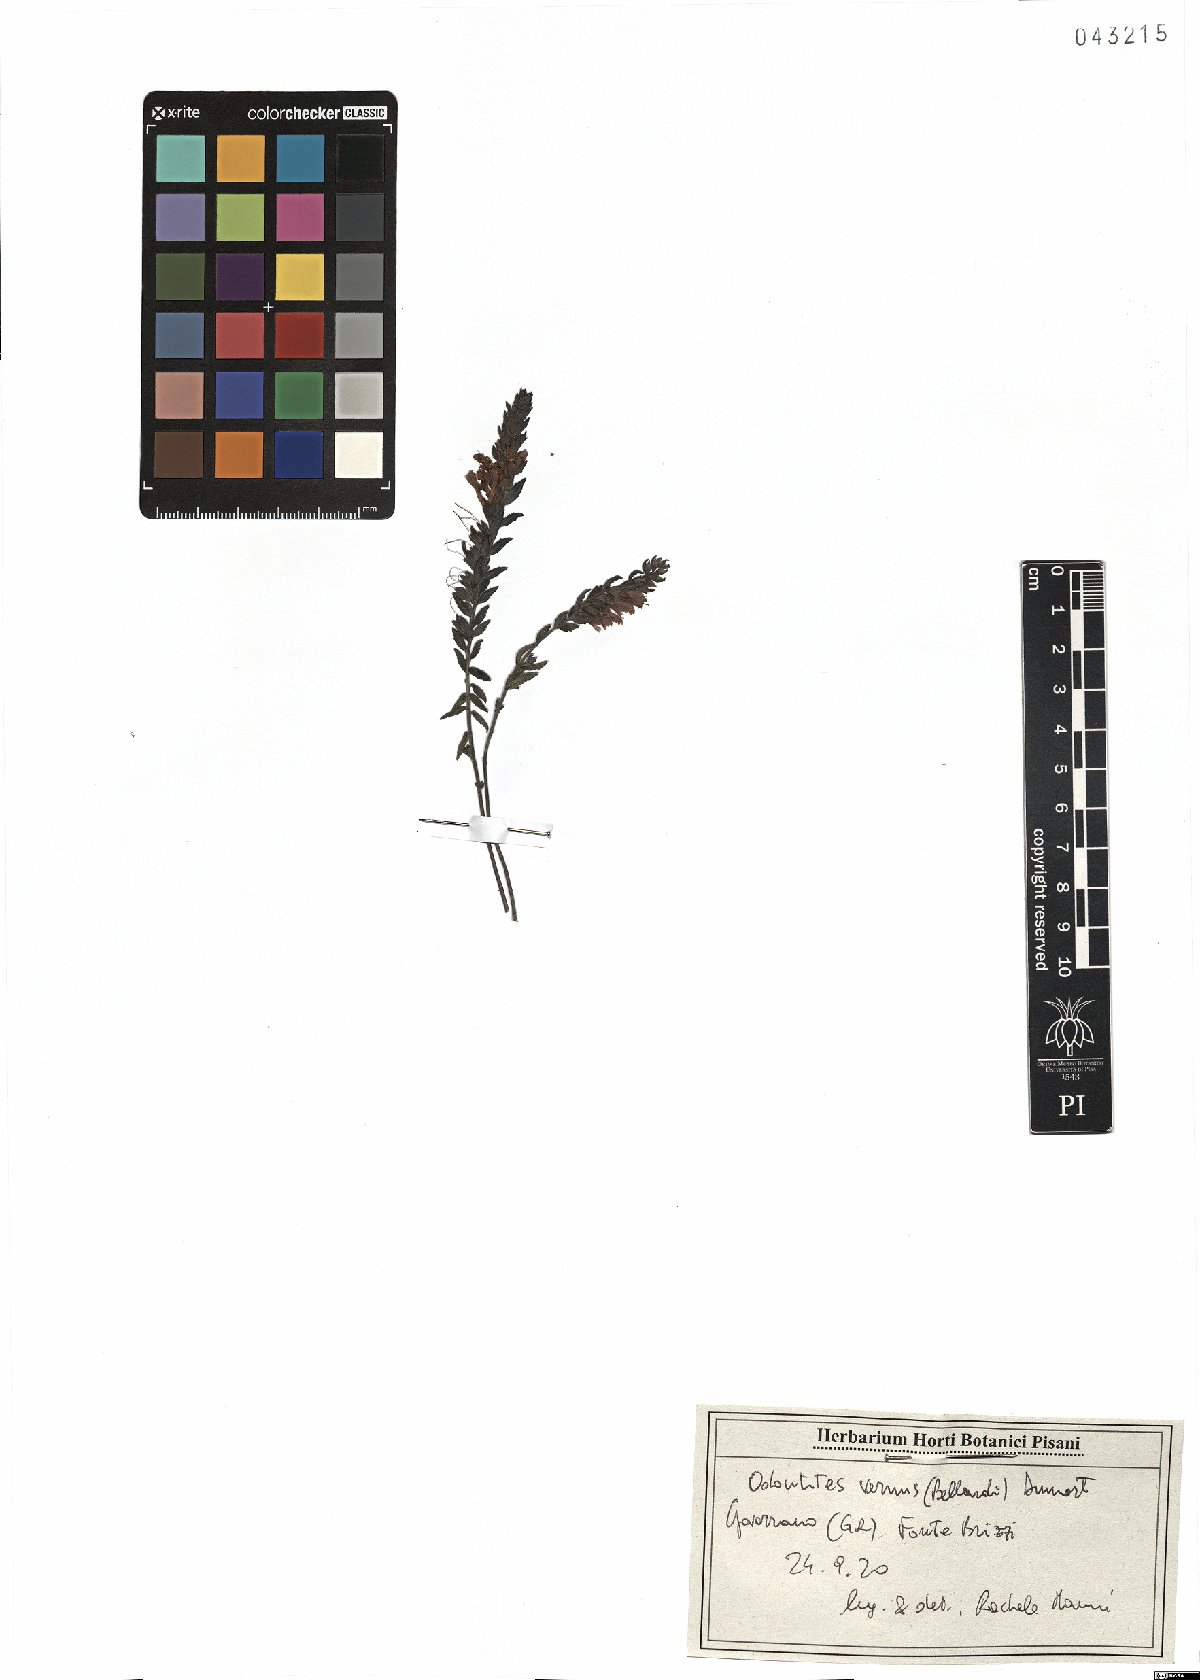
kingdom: Plantae
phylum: Tracheophyta
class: Magnoliopsida
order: Lamiales
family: Orobanchaceae
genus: Odontites
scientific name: Odontites vernus
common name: Red bartsia
